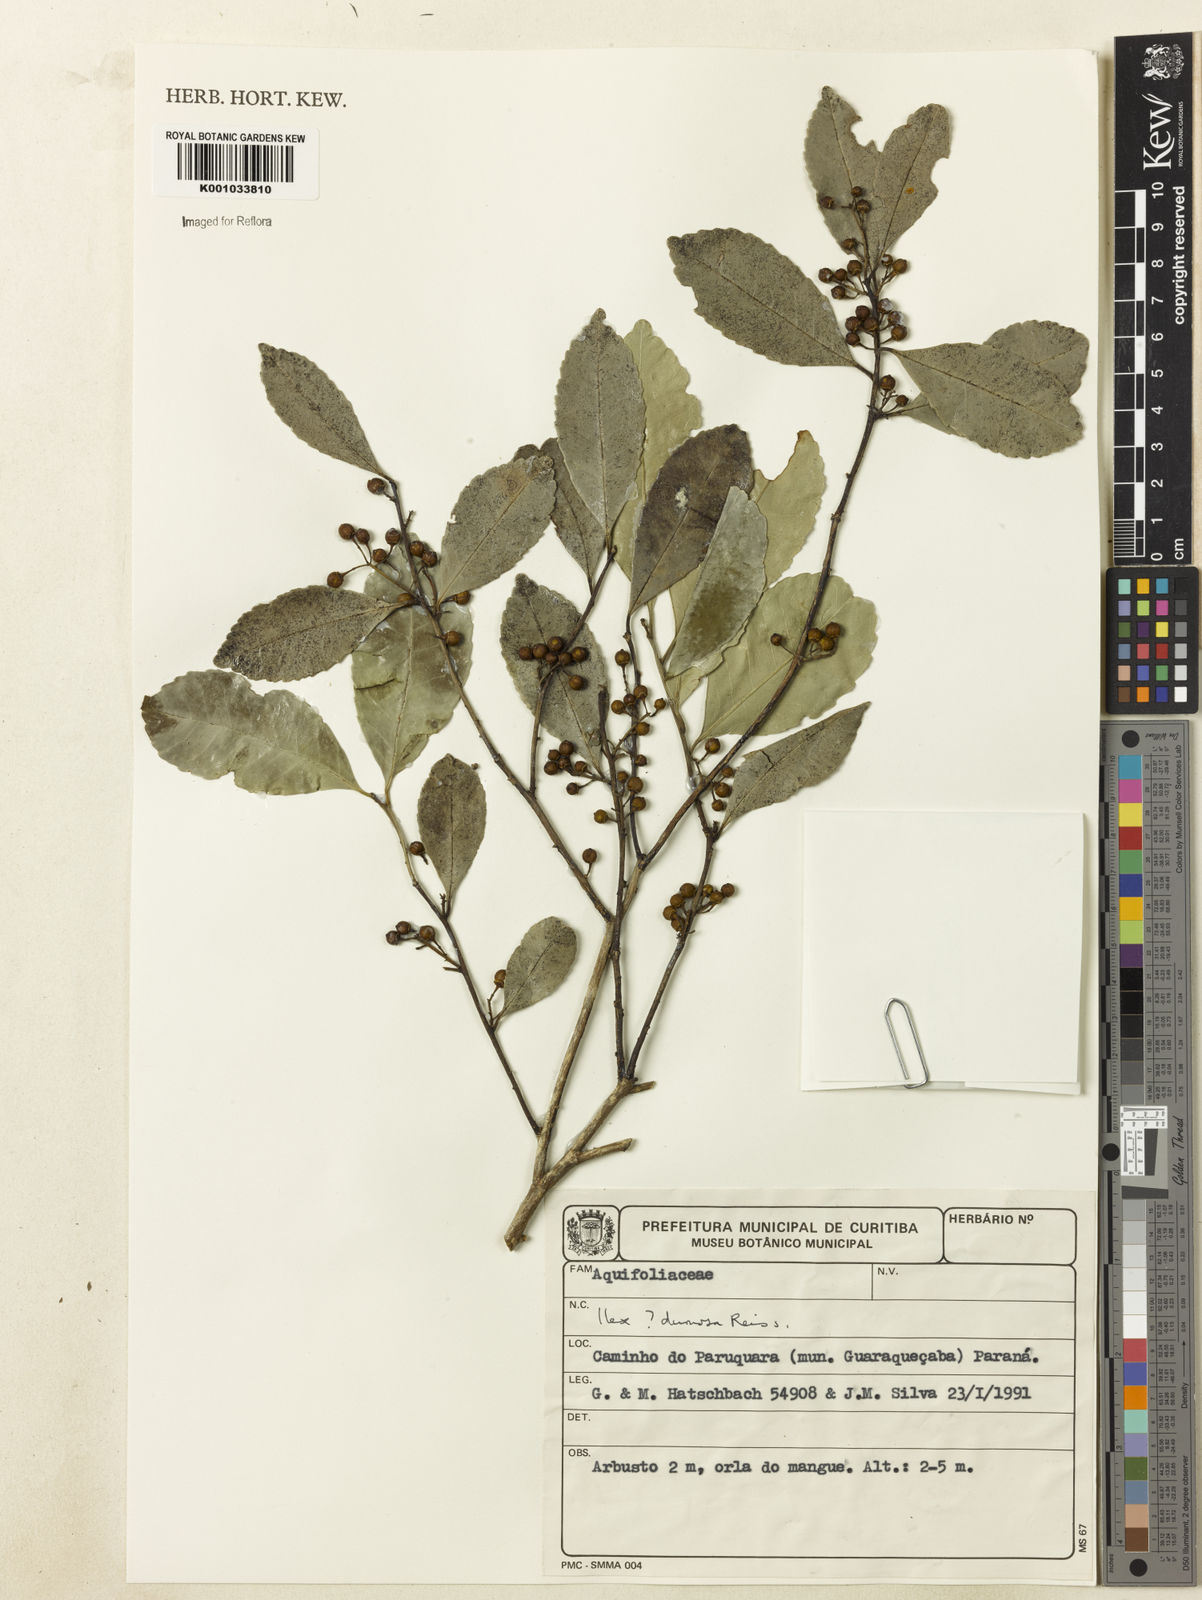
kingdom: Plantae
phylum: Tracheophyta
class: Magnoliopsida
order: Aquifoliales
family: Aquifoliaceae
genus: Ilex
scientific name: Ilex dumosa
